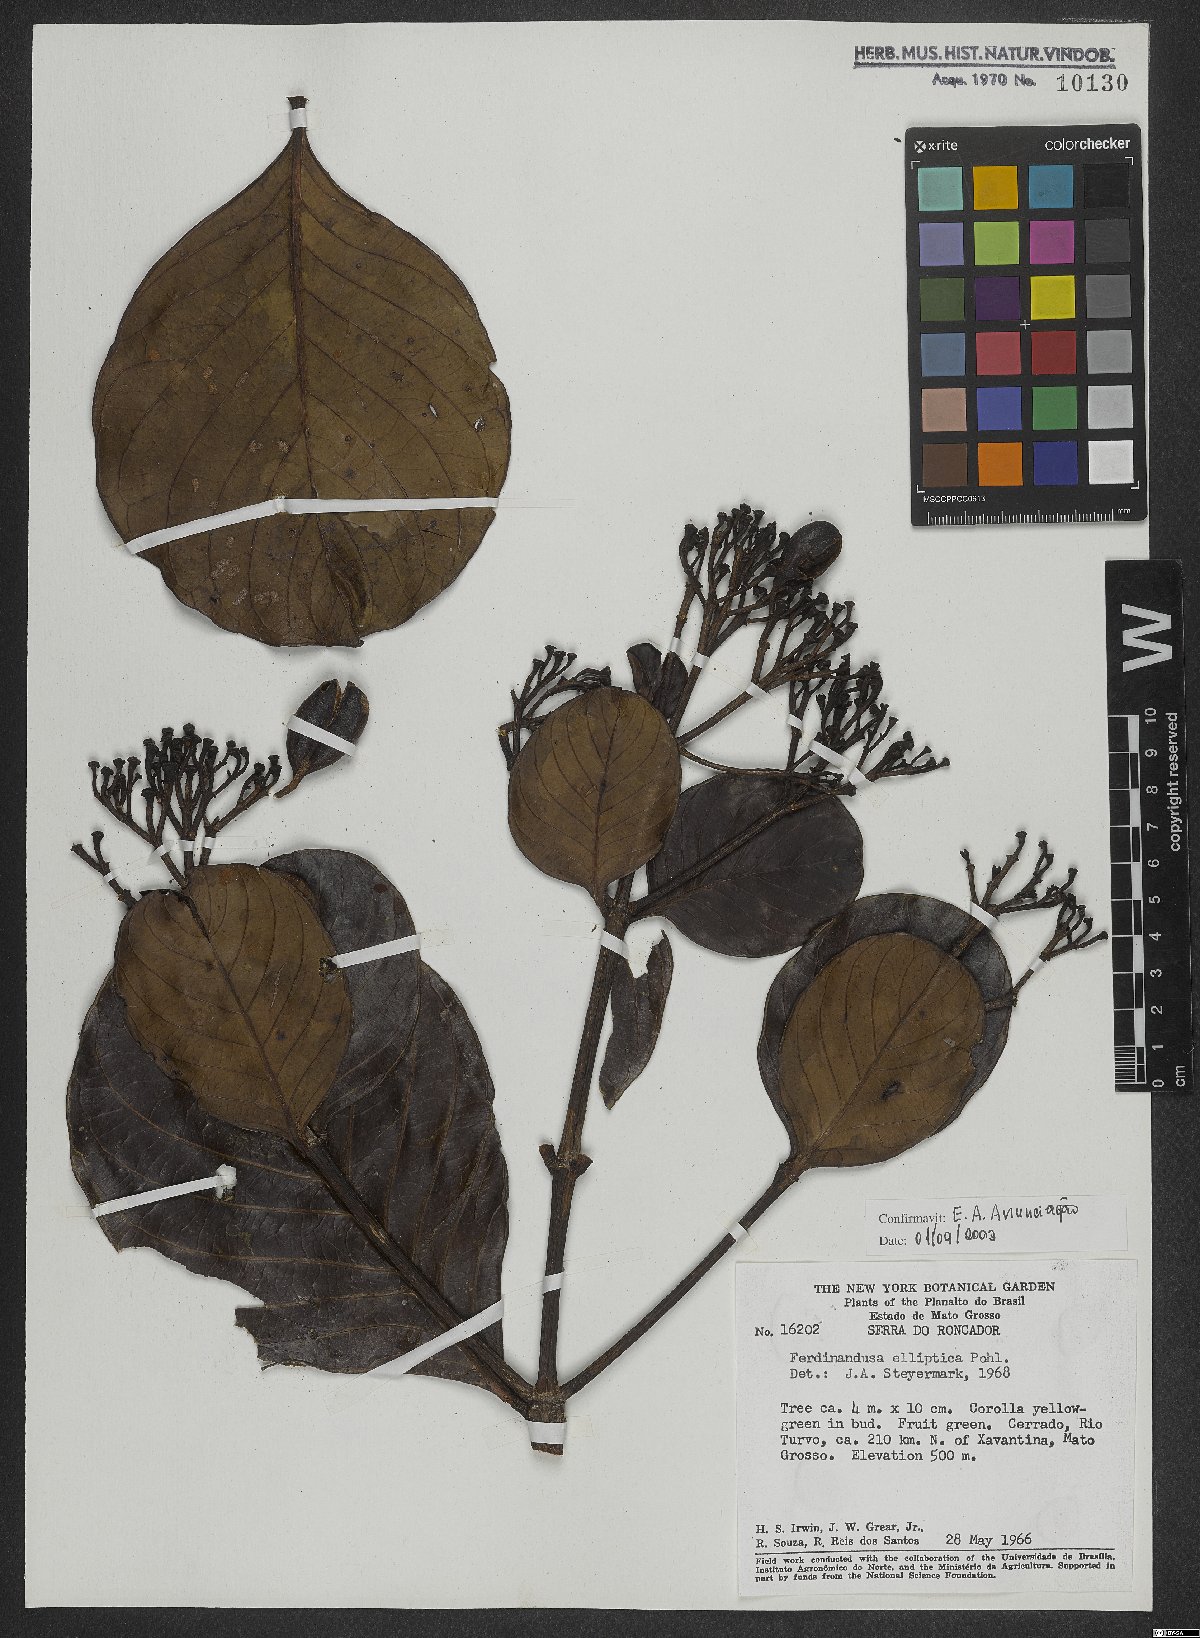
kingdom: Plantae
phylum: Tracheophyta
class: Magnoliopsida
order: Gentianales
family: Rubiaceae
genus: Ferdinandusa
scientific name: Ferdinandusa elliptica
